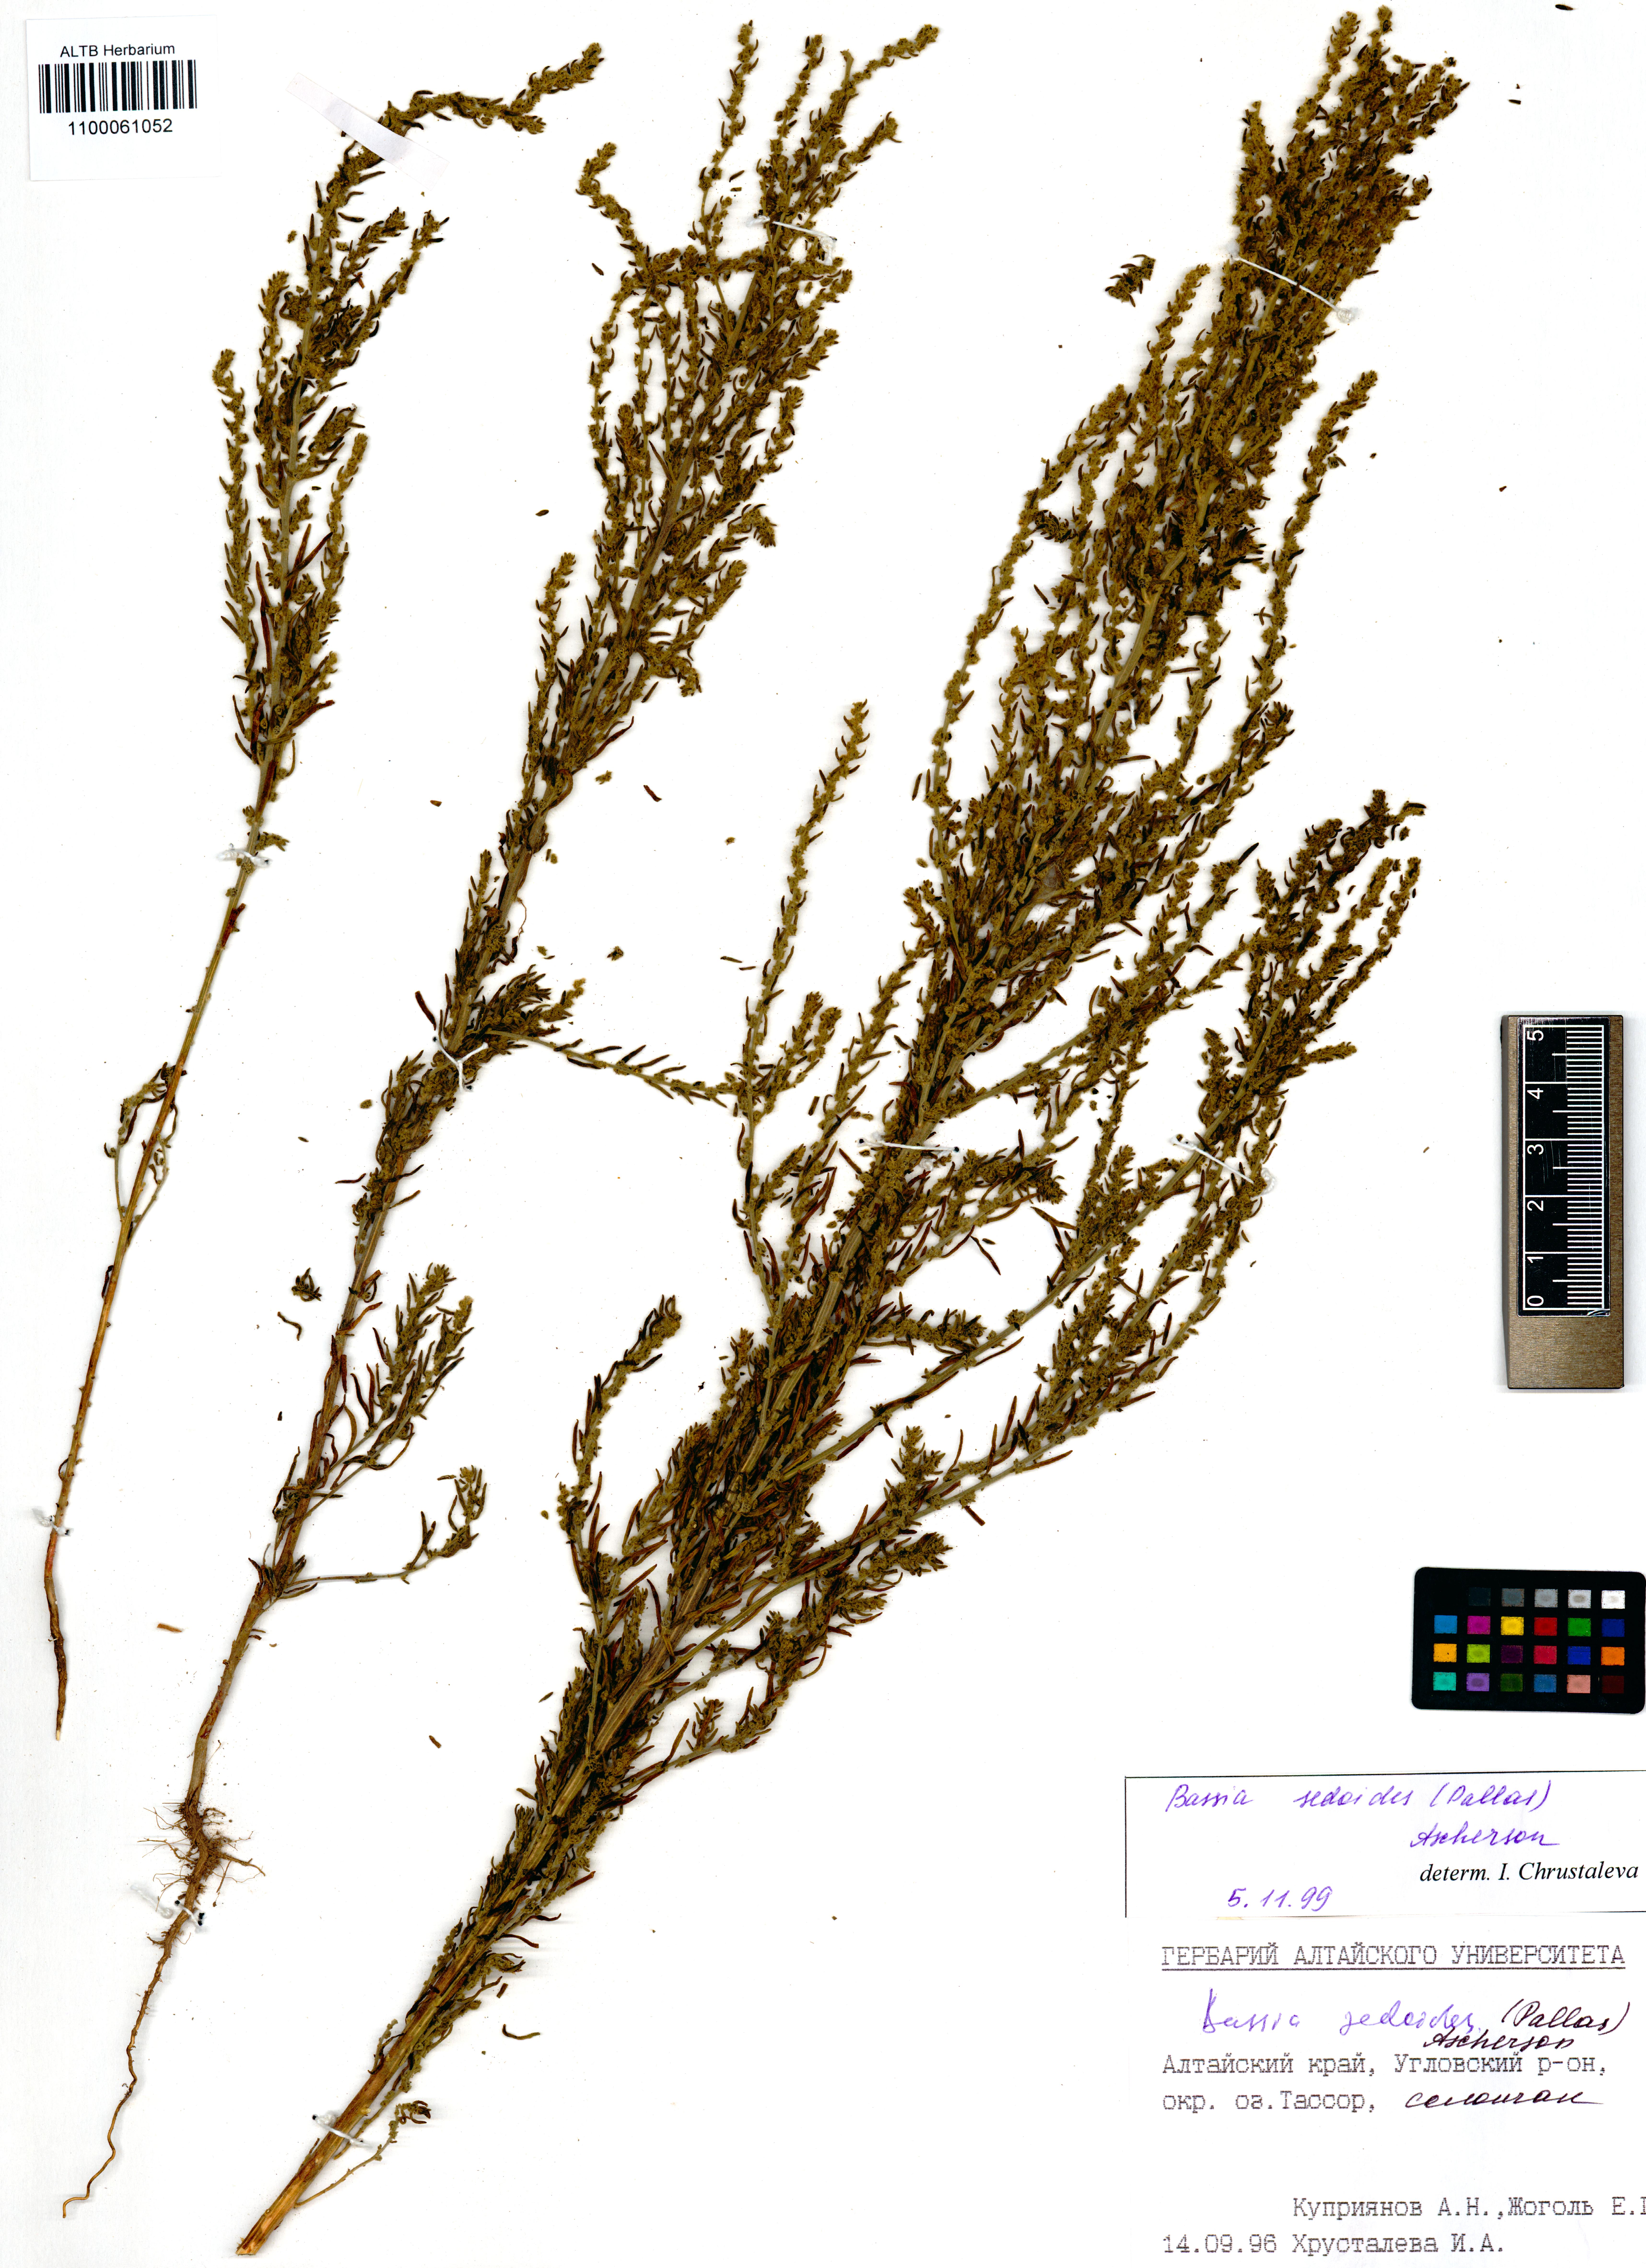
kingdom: Plantae
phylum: Tracheophyta
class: Magnoliopsida
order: Caryophyllales
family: Amaranthaceae
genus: Sedobassia
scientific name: Sedobassia sedoides
